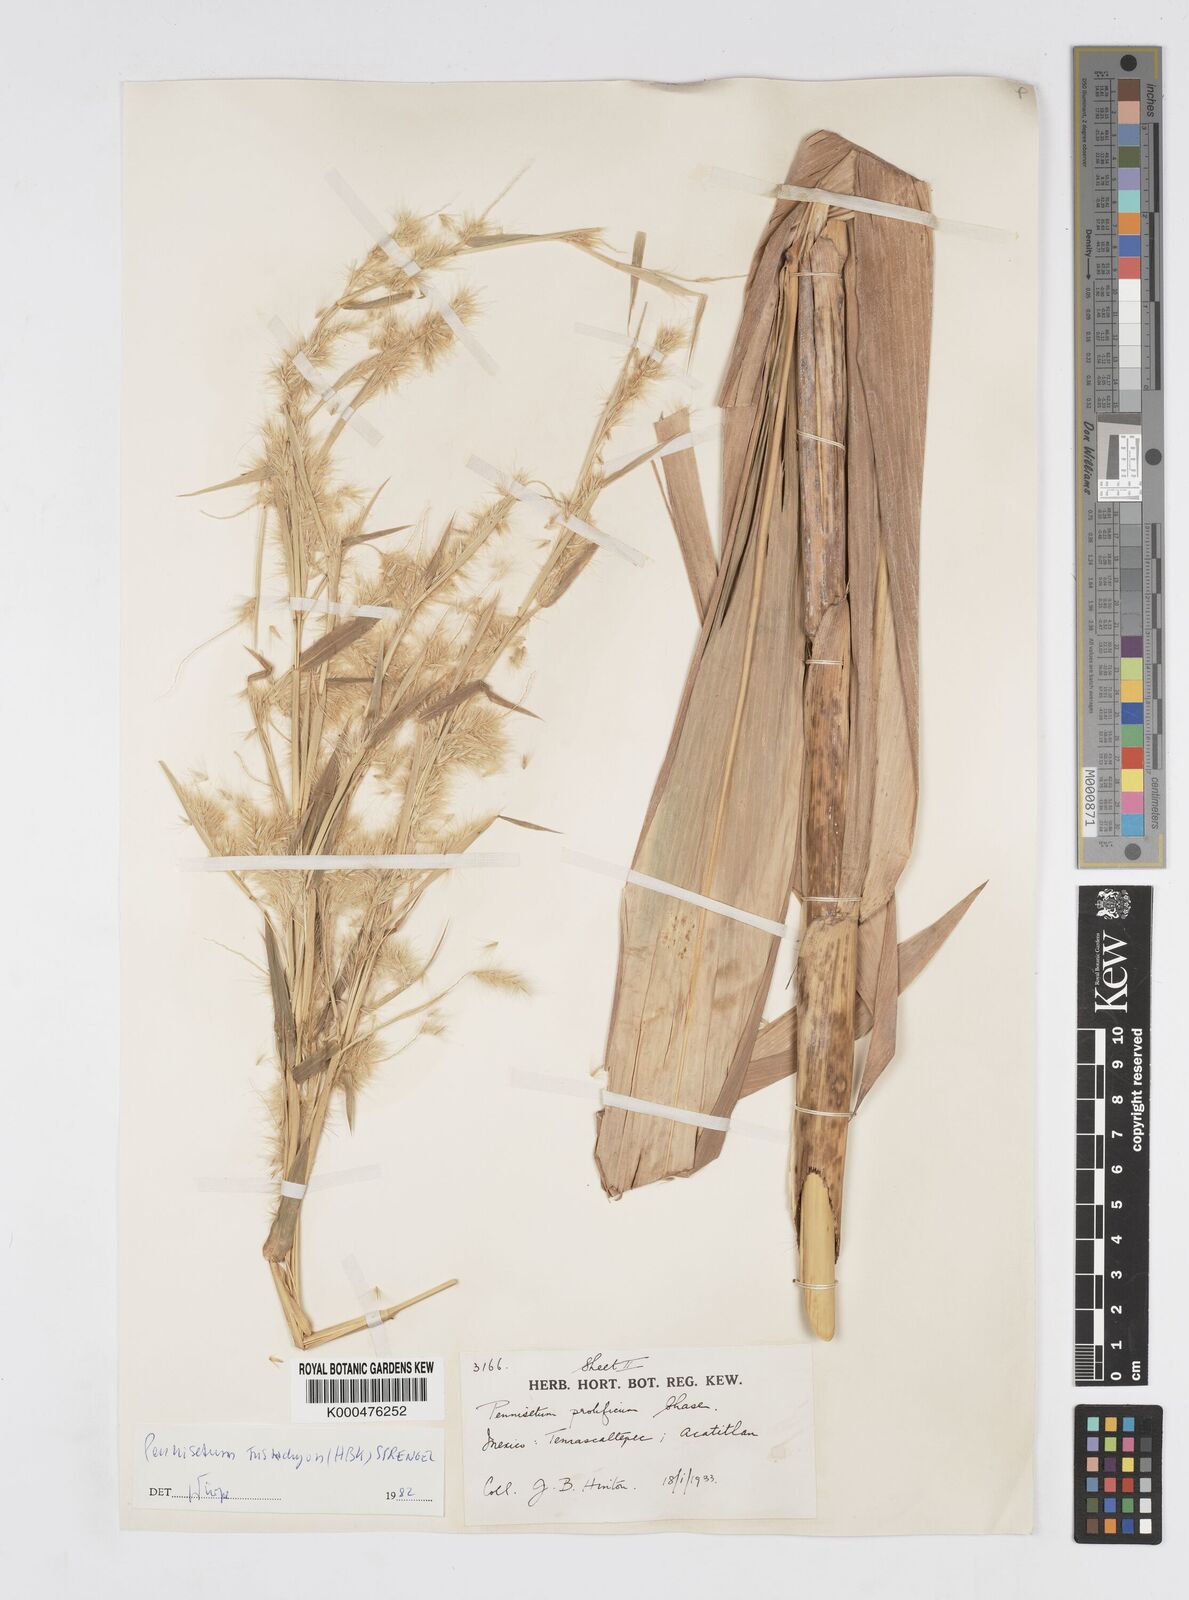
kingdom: Plantae
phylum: Tracheophyta
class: Liliopsida
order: Poales
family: Poaceae
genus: Cenchrus
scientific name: Cenchrus prolificus
